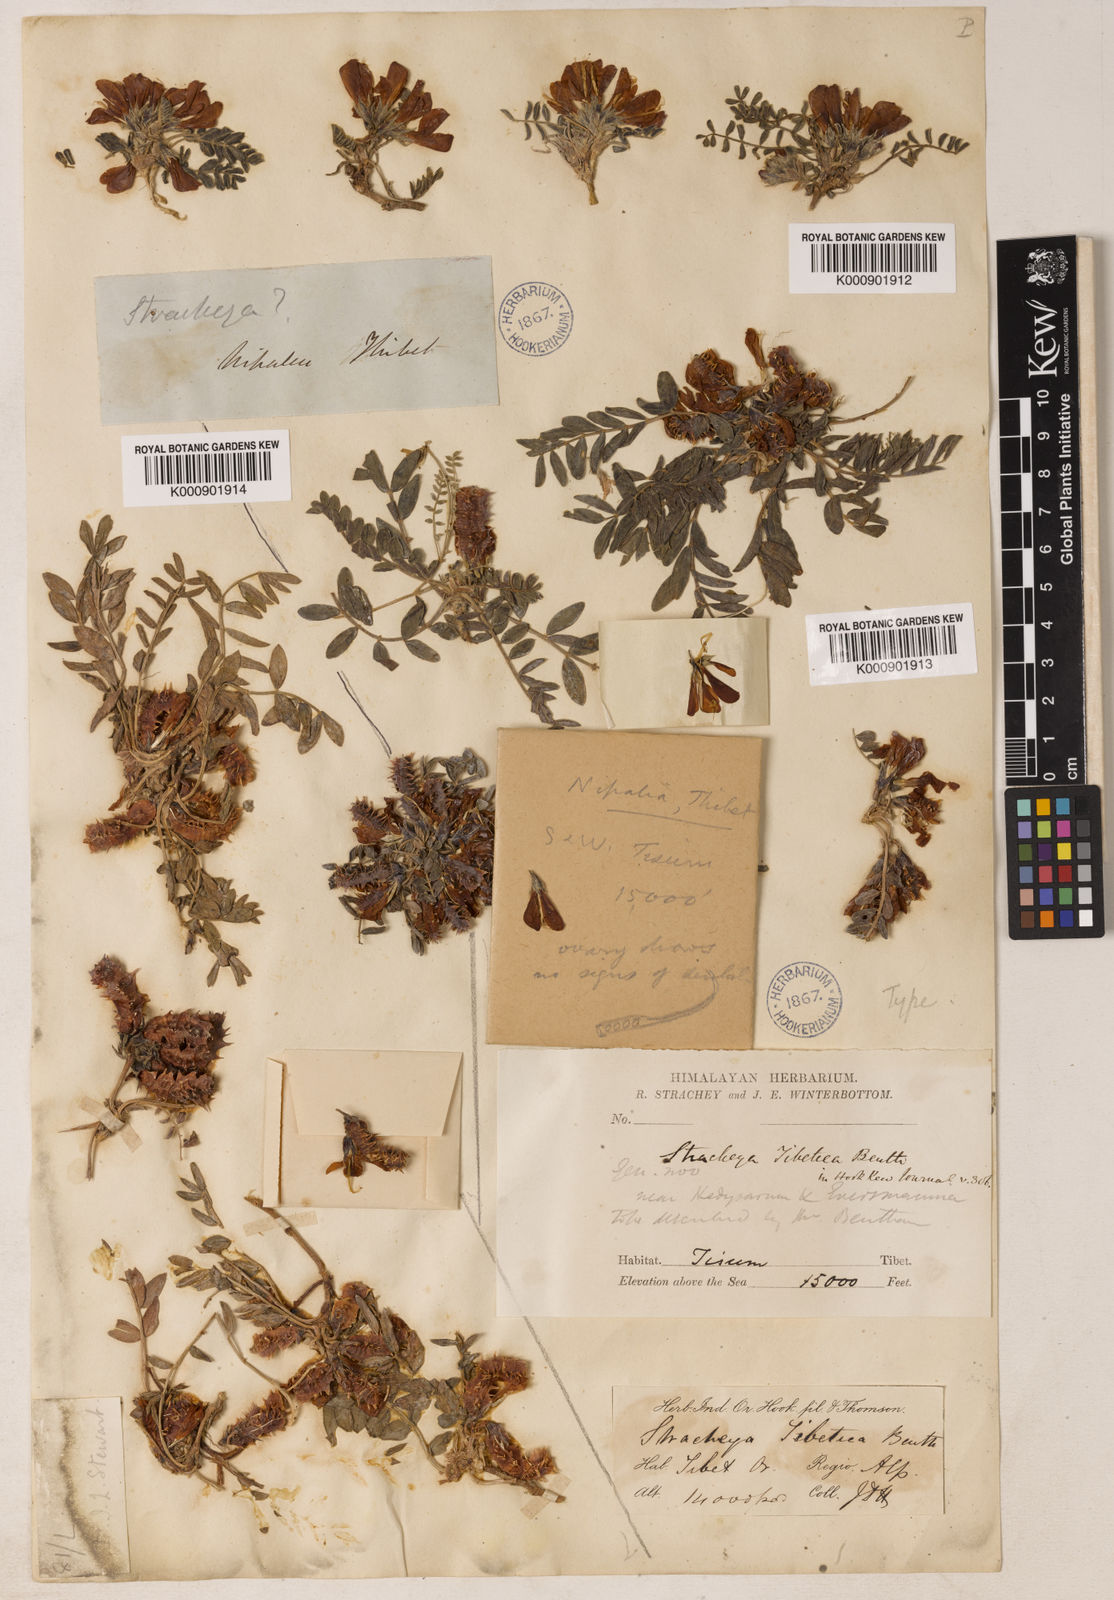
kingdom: Plantae
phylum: Tracheophyta
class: Magnoliopsida
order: Fabales
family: Fabaceae
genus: Hedysarum
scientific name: Hedysarum tibeticum
